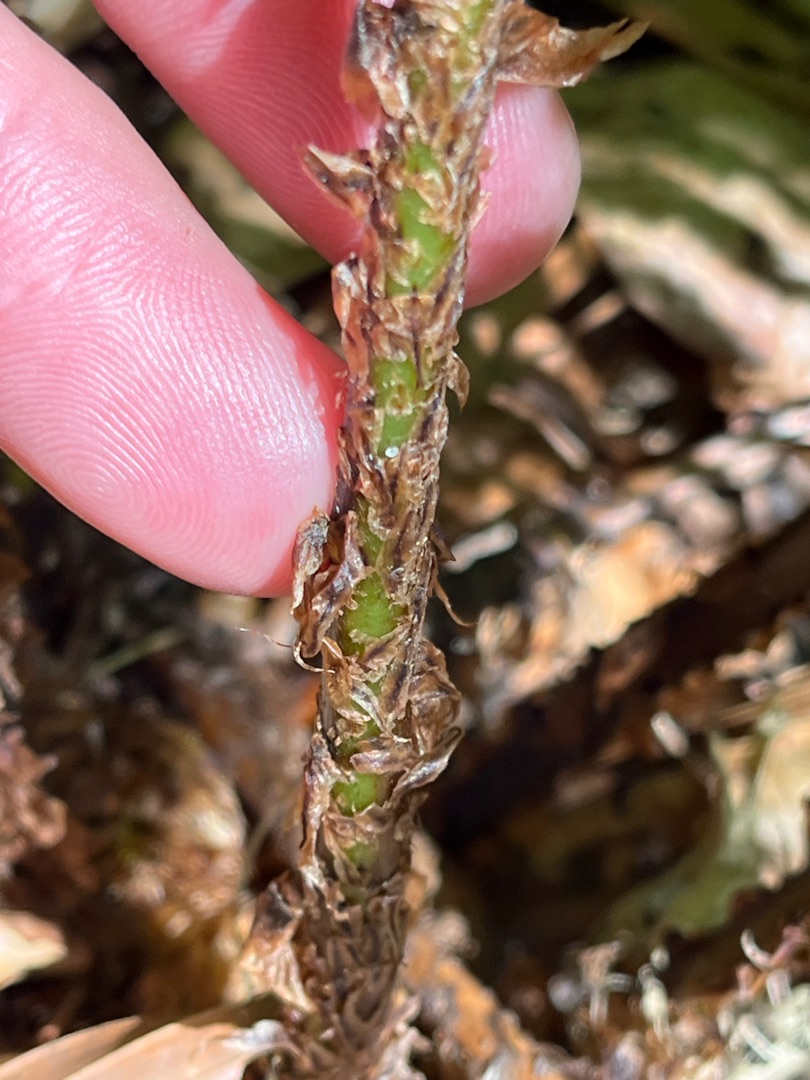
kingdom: Plantae
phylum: Tracheophyta
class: Polypodiopsida
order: Polypodiales
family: Dryopteridaceae
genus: Dryopteris
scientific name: Dryopteris dilatata
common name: Bredbladet mangeløv
